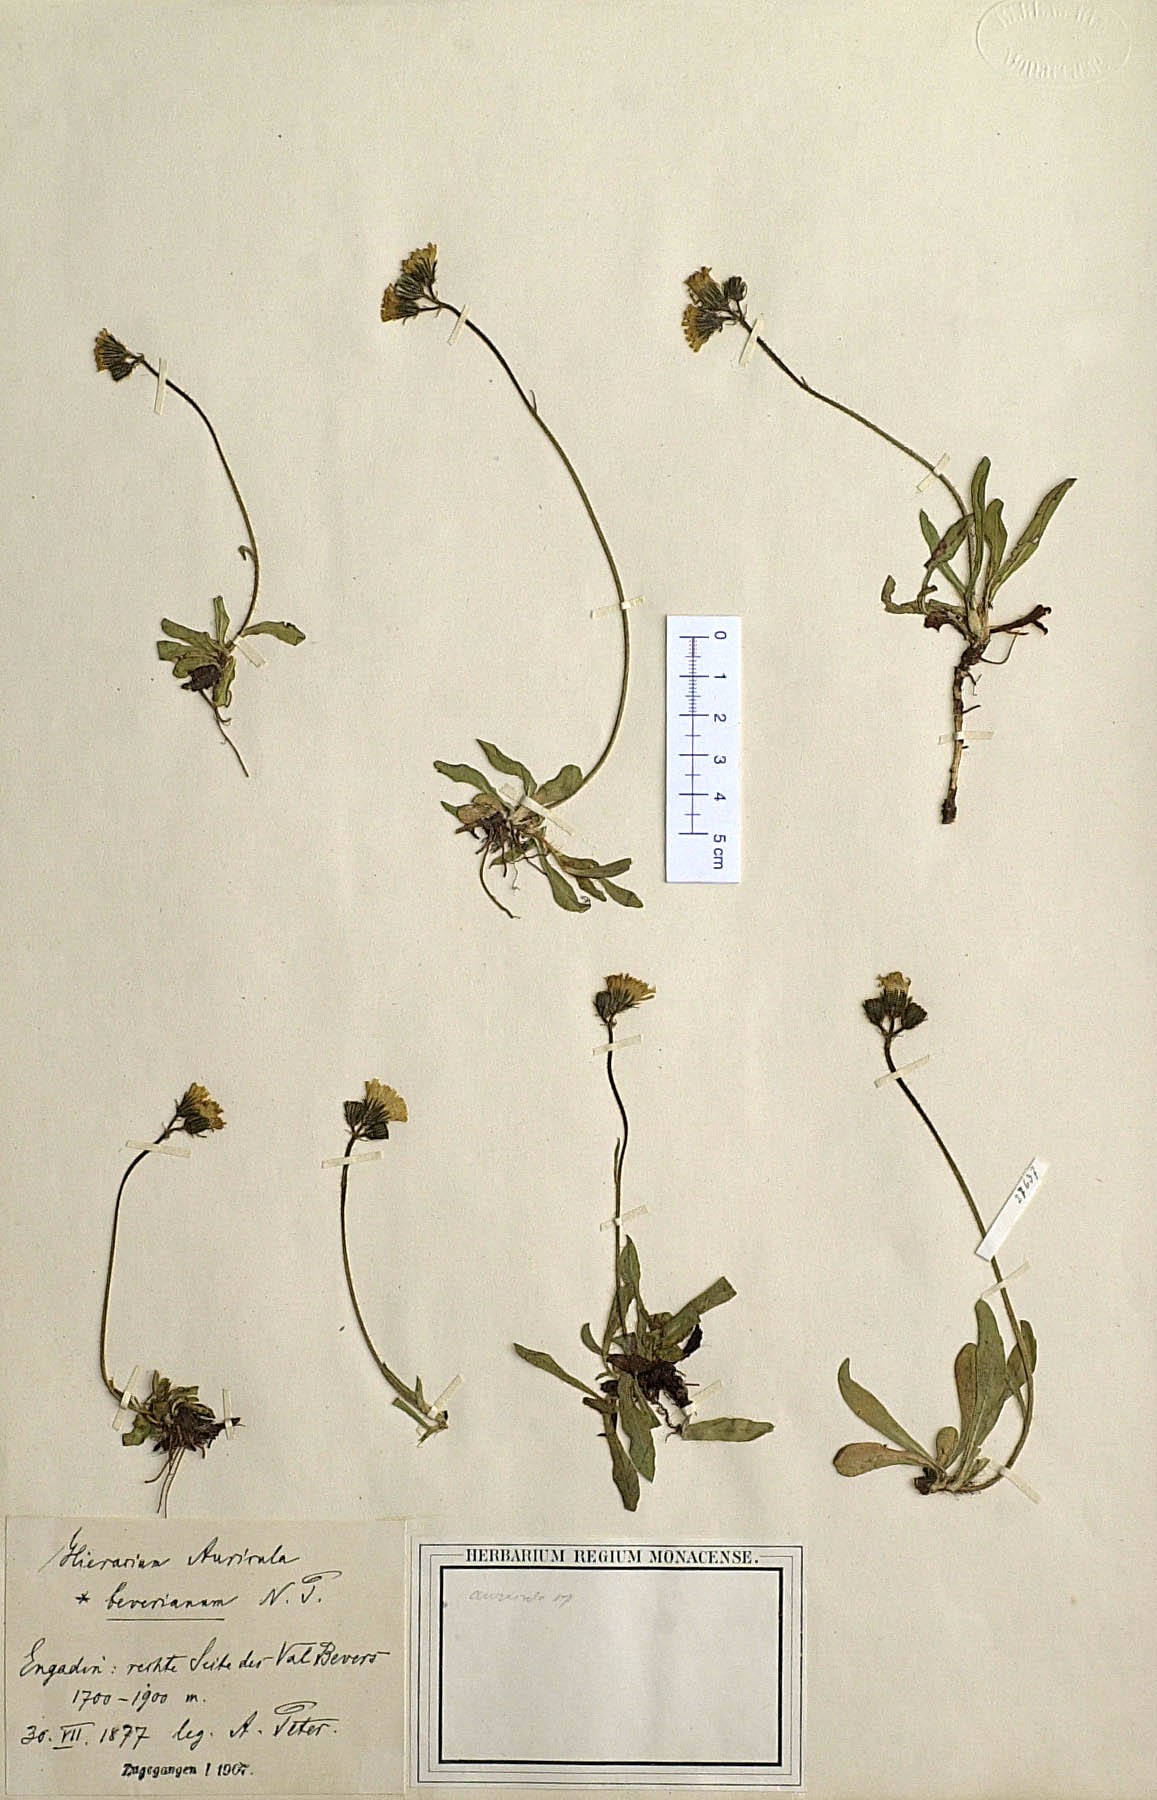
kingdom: Plantae
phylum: Tracheophyta
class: Magnoliopsida
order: Asterales
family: Asteraceae
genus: Pilosella
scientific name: Pilosella lactucella
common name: Glaucous fox-and-cubs
